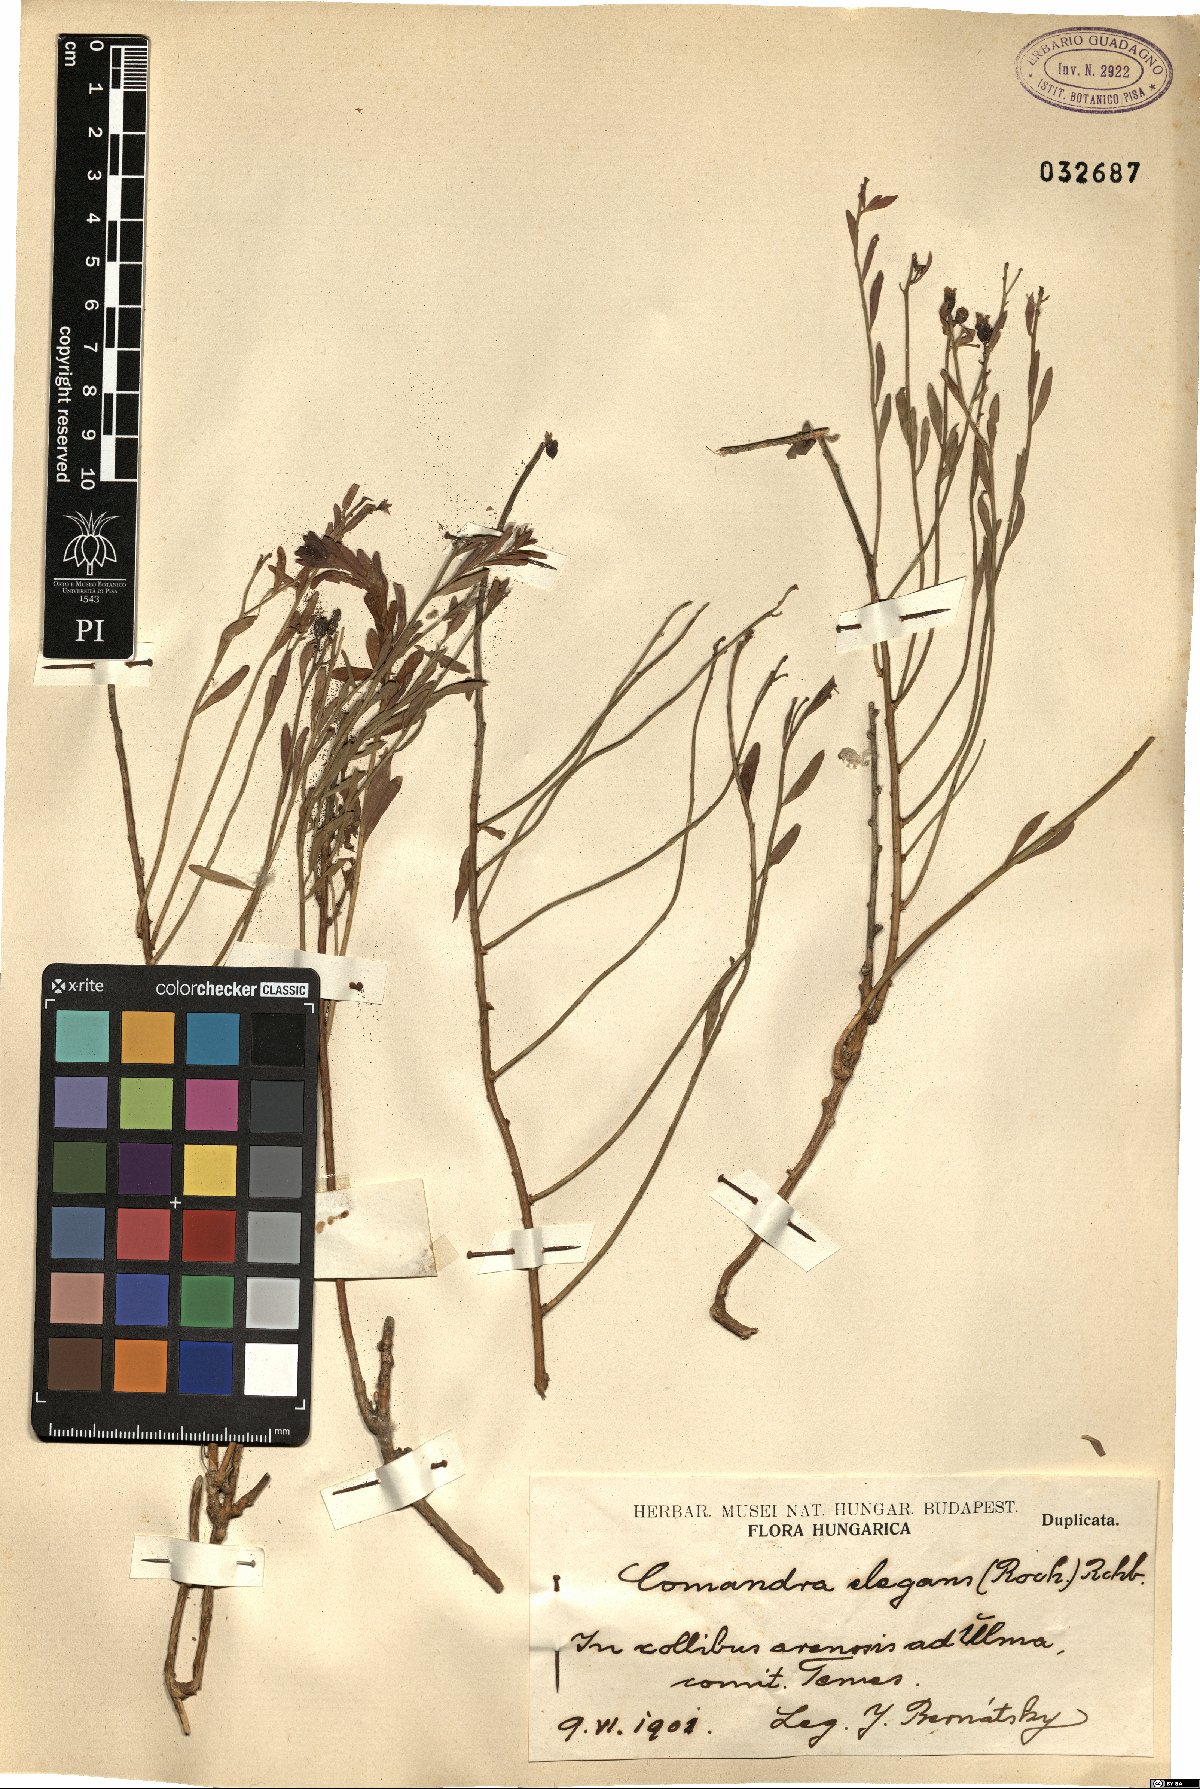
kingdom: Plantae
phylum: Tracheophyta
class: Magnoliopsida
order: Santalales
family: Comandraceae
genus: Comandra
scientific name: Comandra umbellata
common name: Bastard toadflax
